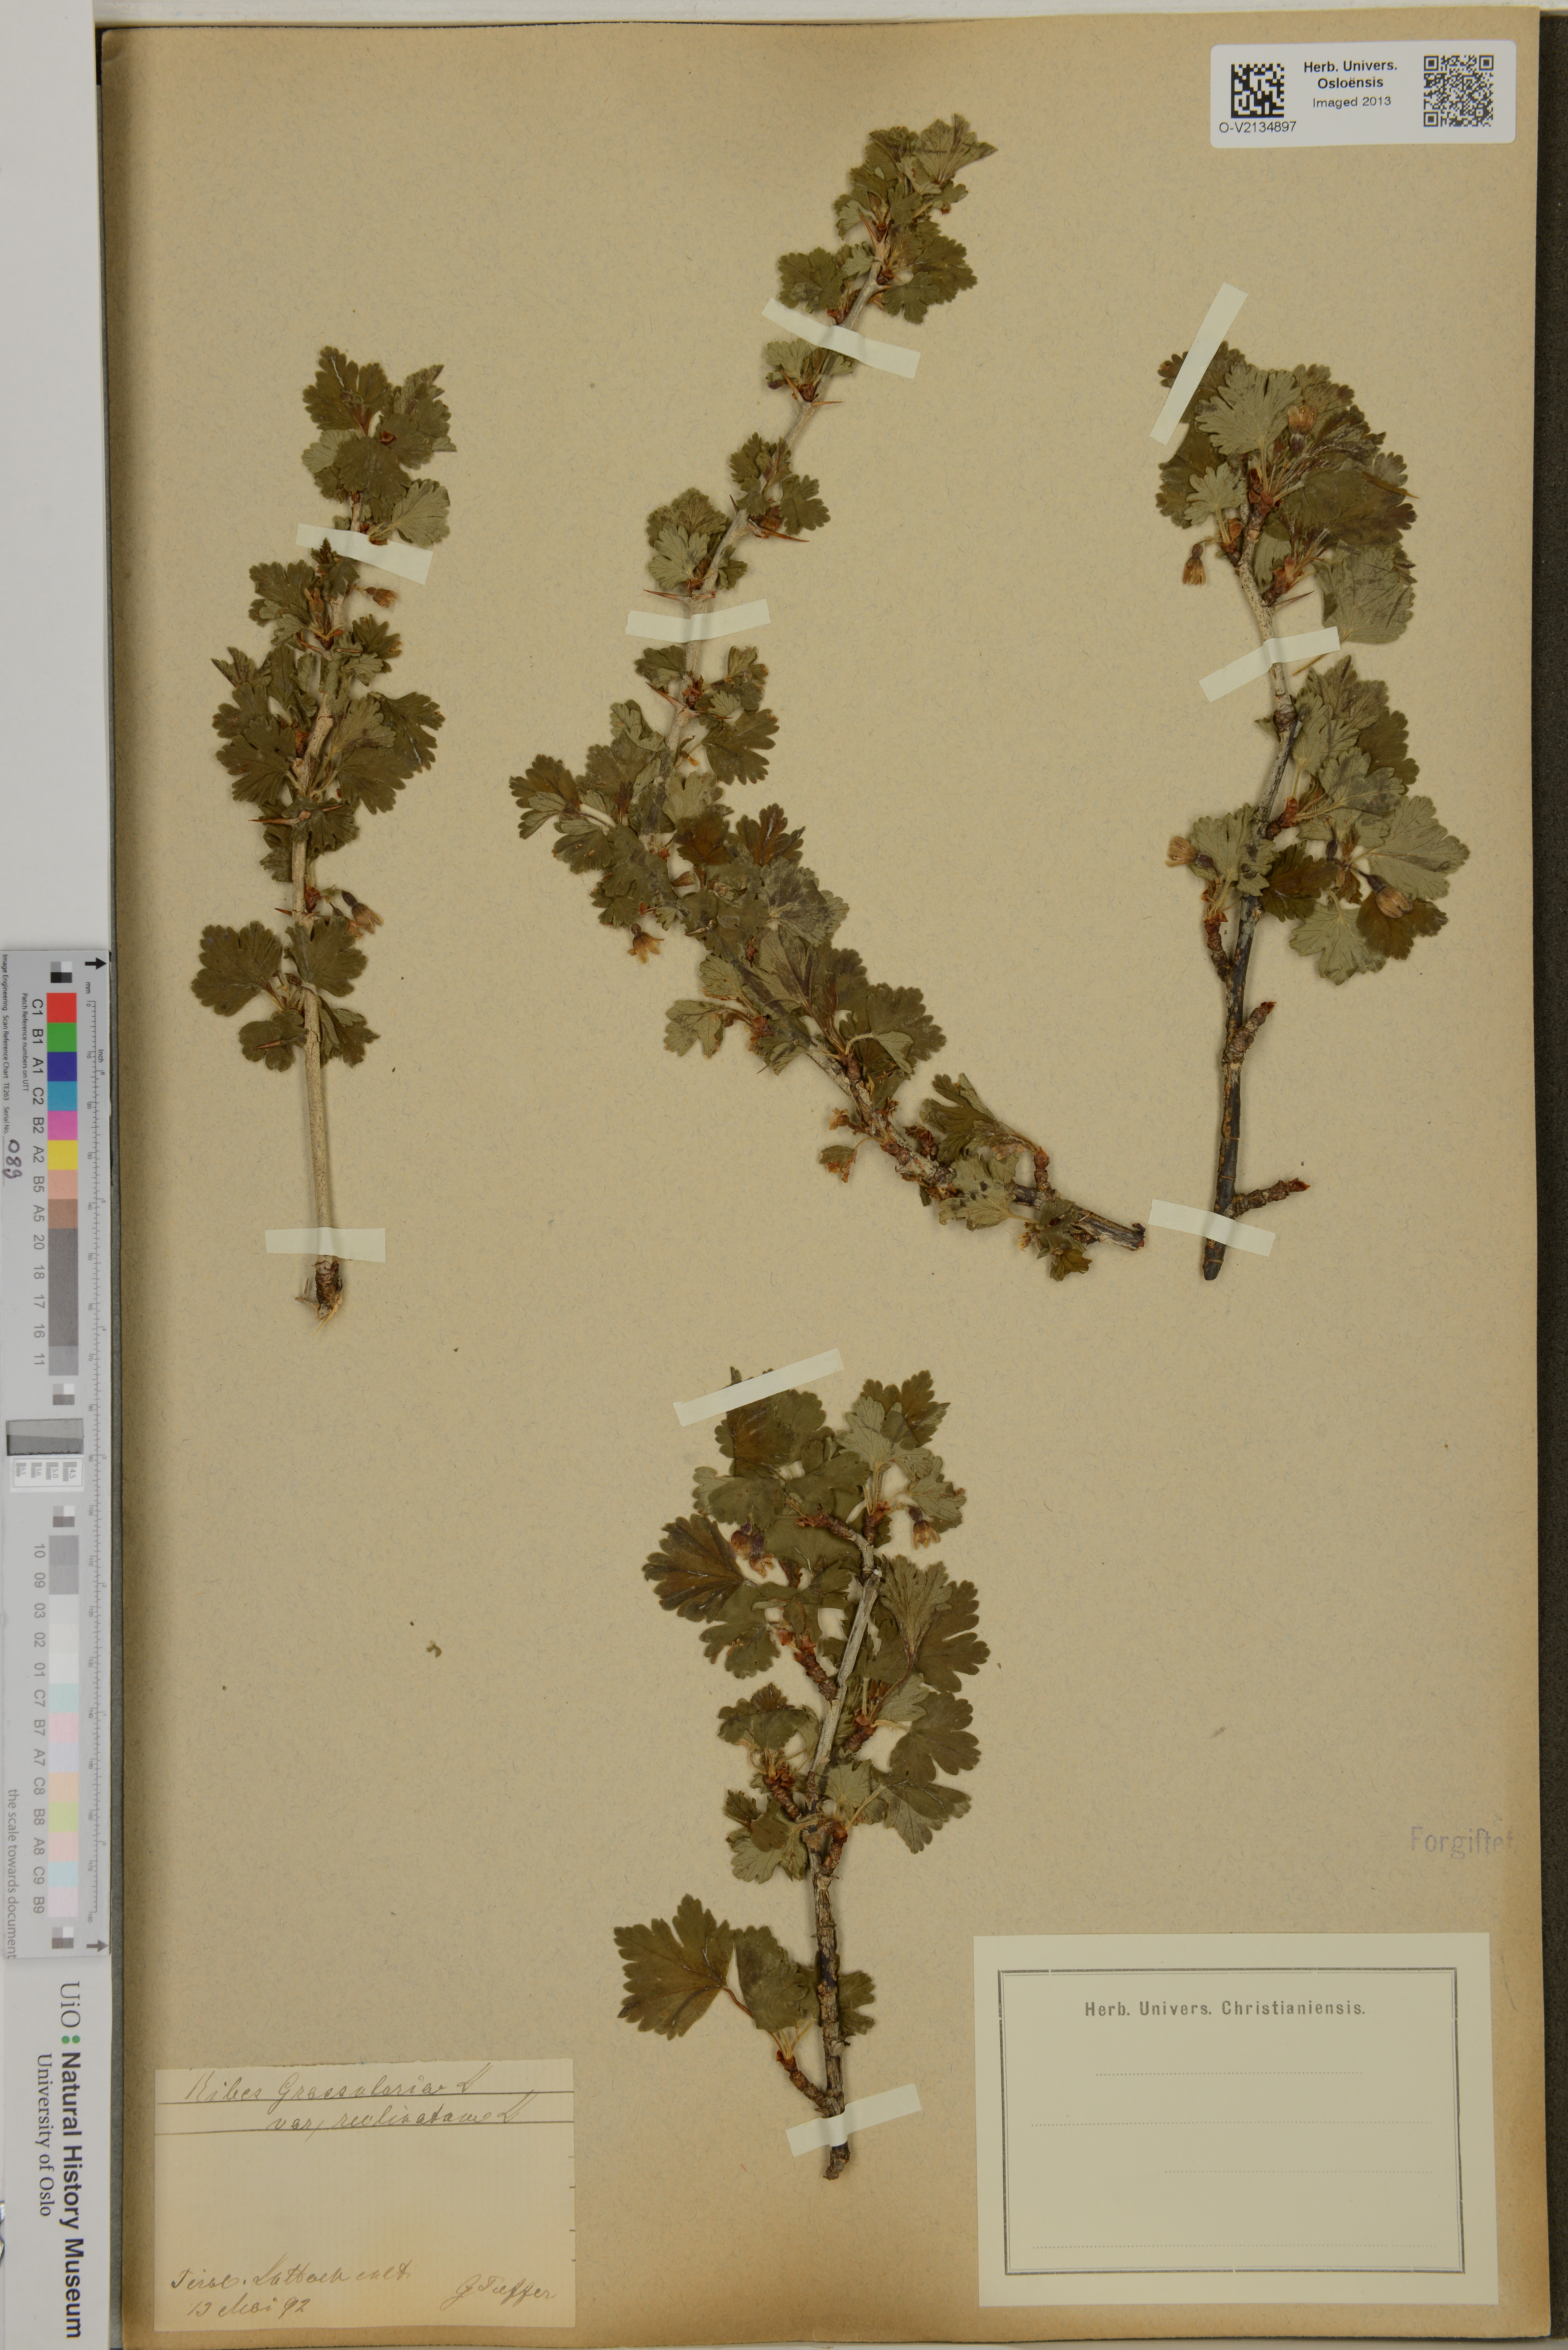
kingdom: Plantae
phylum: Tracheophyta
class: Magnoliopsida
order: Saxifragales
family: Grossulariaceae
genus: Ribes
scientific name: Ribes uva-crispa
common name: Gooseberry
